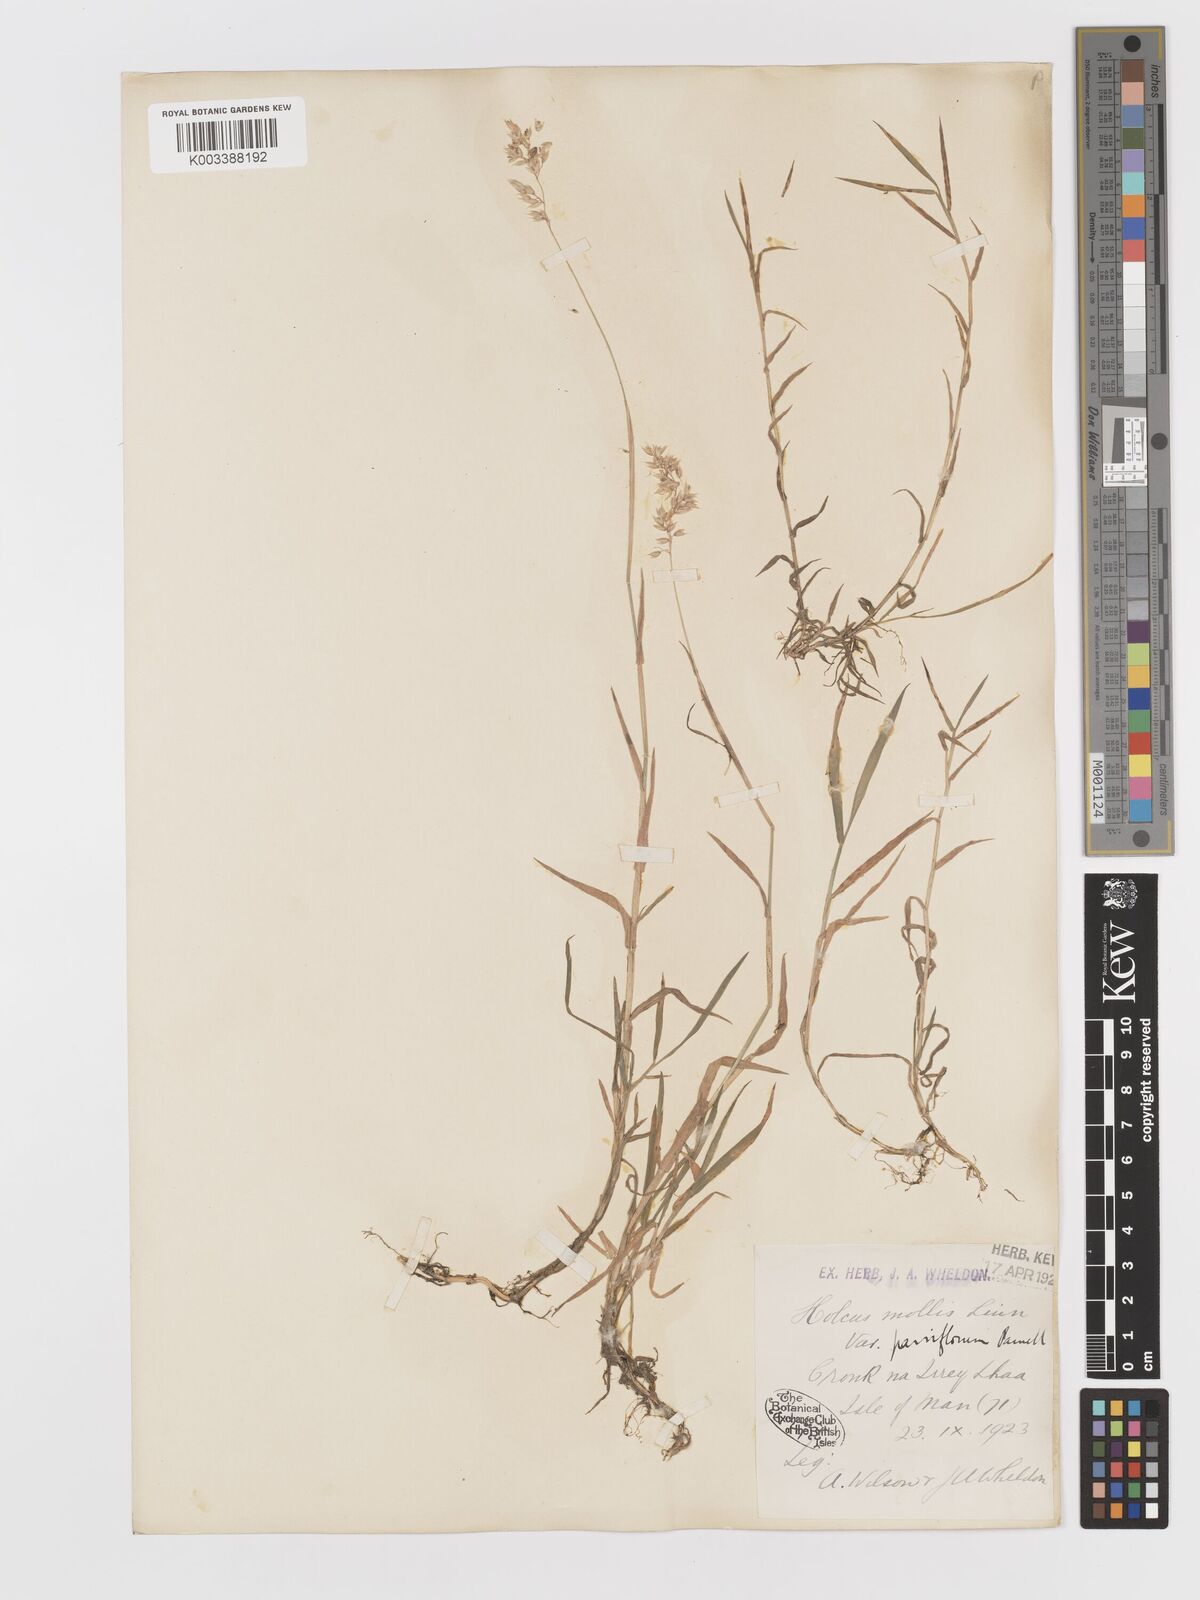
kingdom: Plantae
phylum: Tracheophyta
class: Liliopsida
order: Poales
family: Poaceae
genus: Holcus
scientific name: Holcus mollis
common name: Creeping velvetgrass
